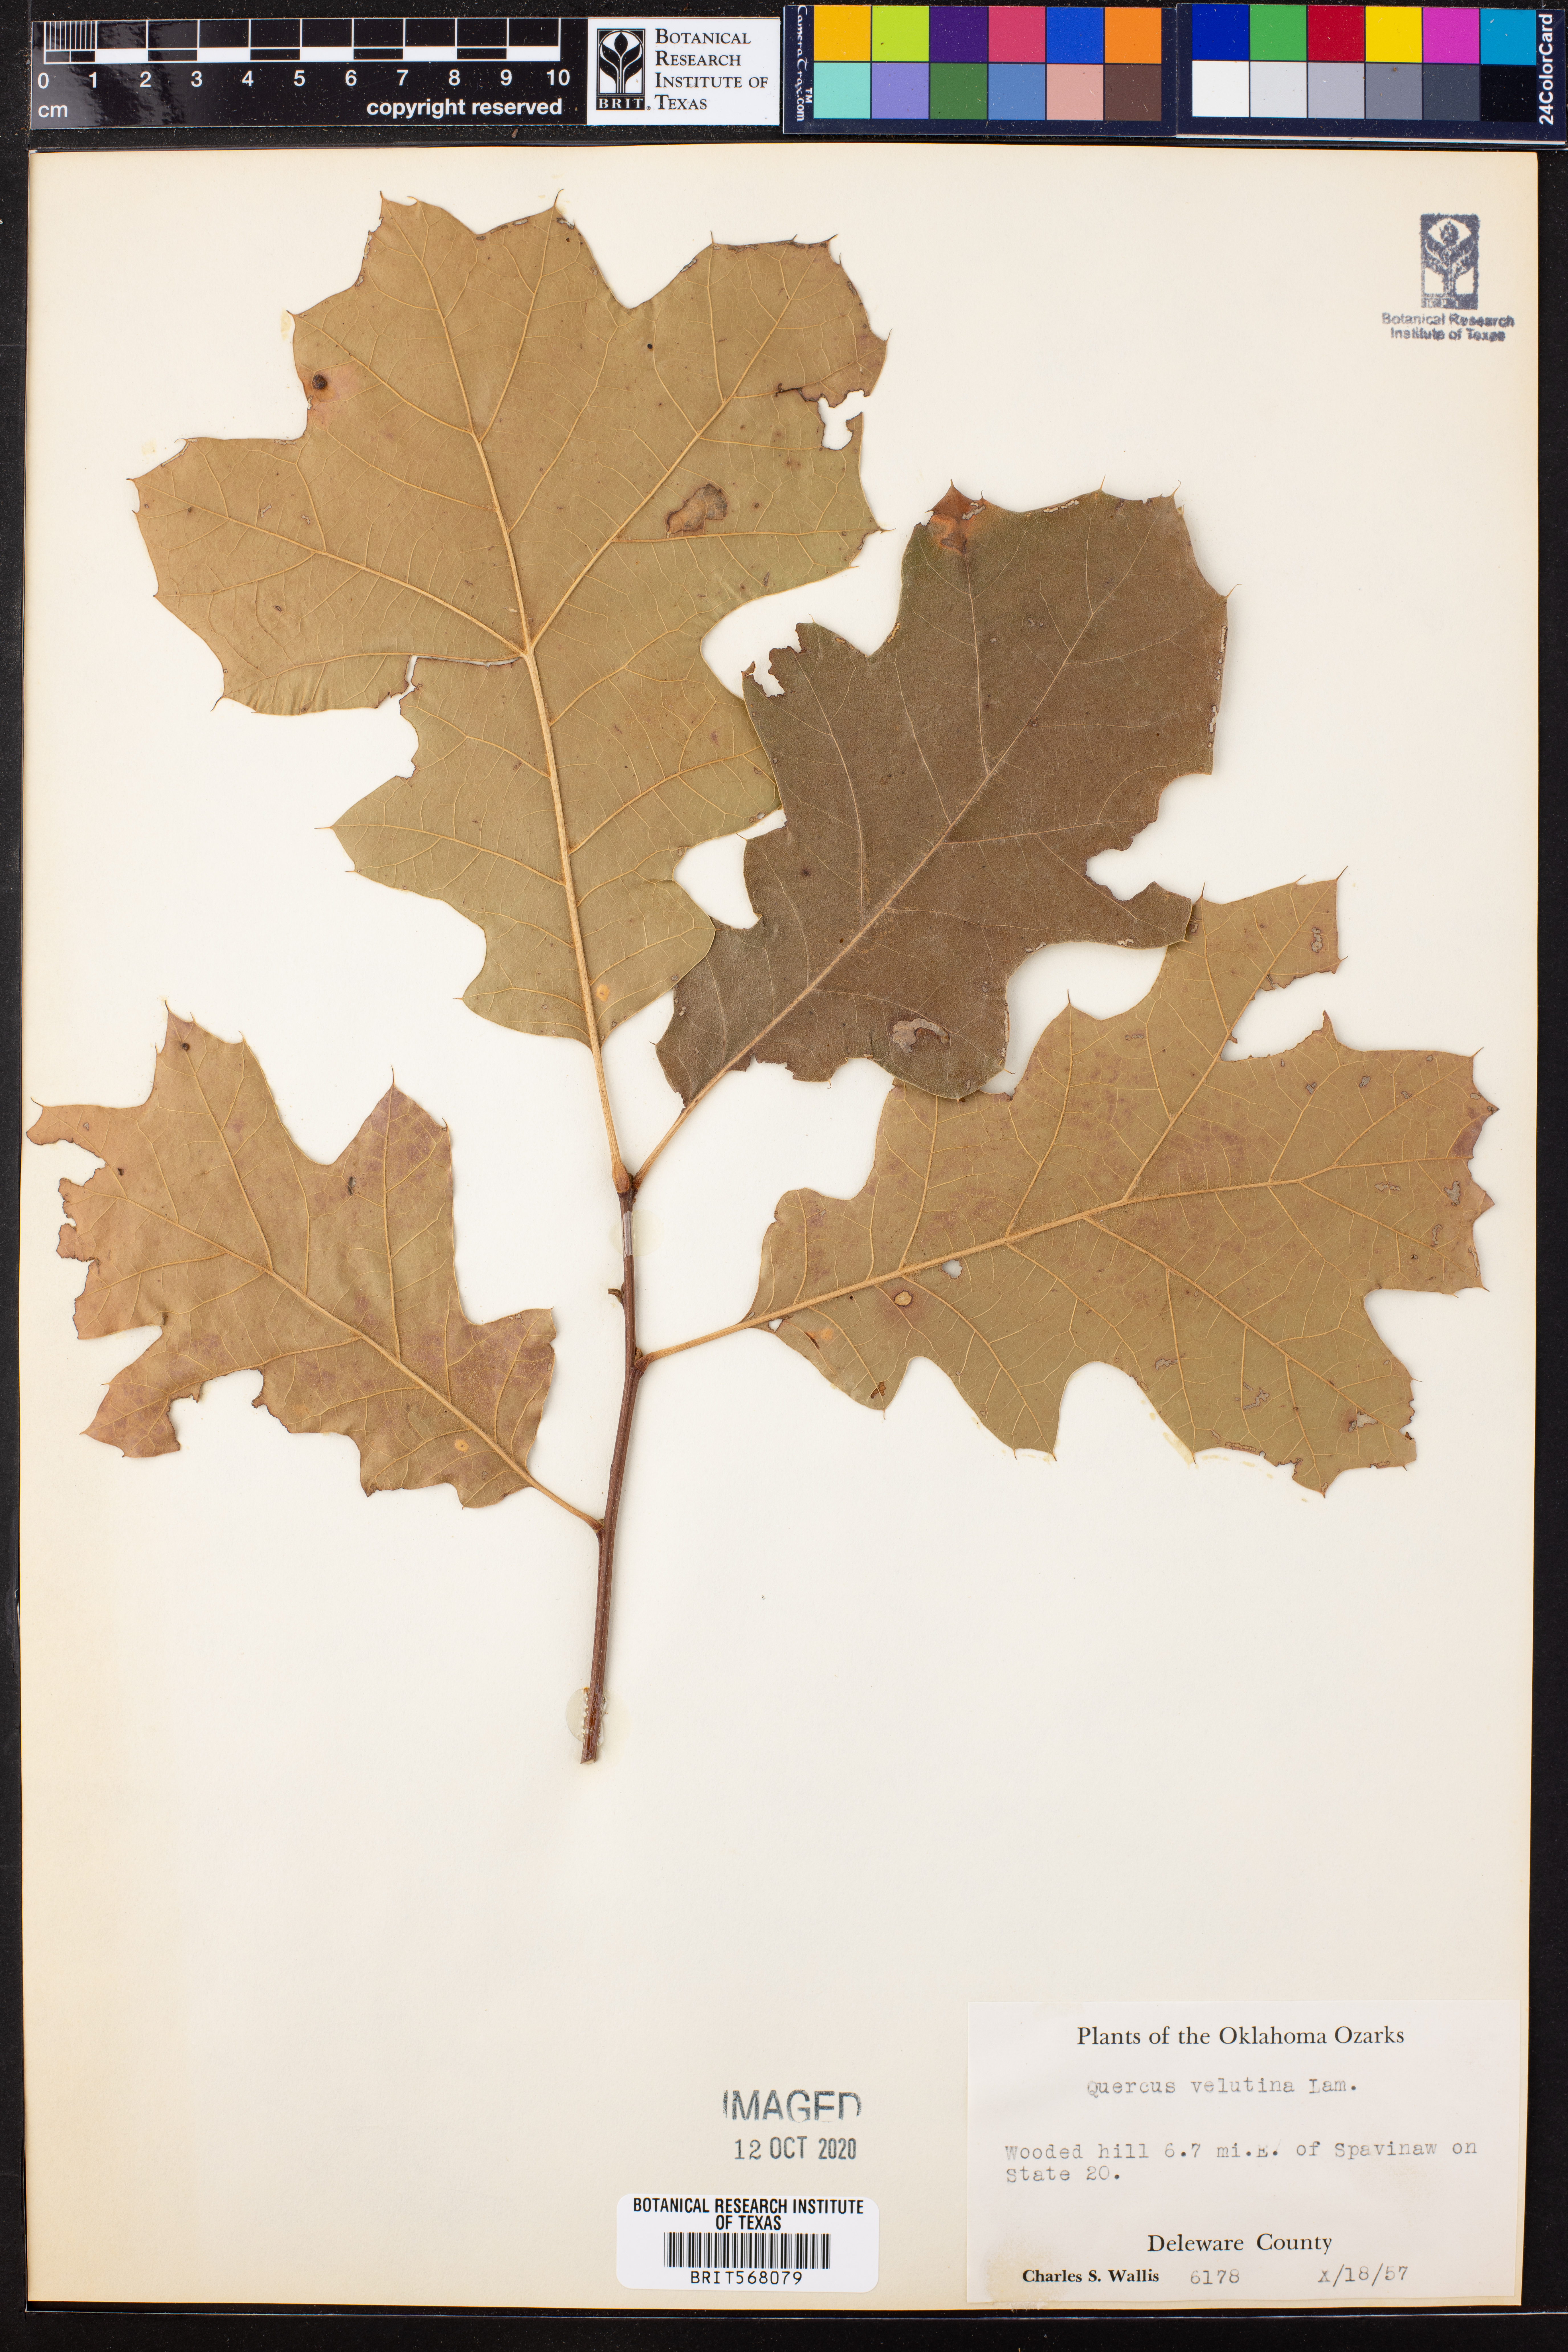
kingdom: Plantae
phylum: Tracheophyta
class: Magnoliopsida
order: Fagales
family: Fagaceae
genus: Quercus
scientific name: Quercus velutina
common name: Black oak
